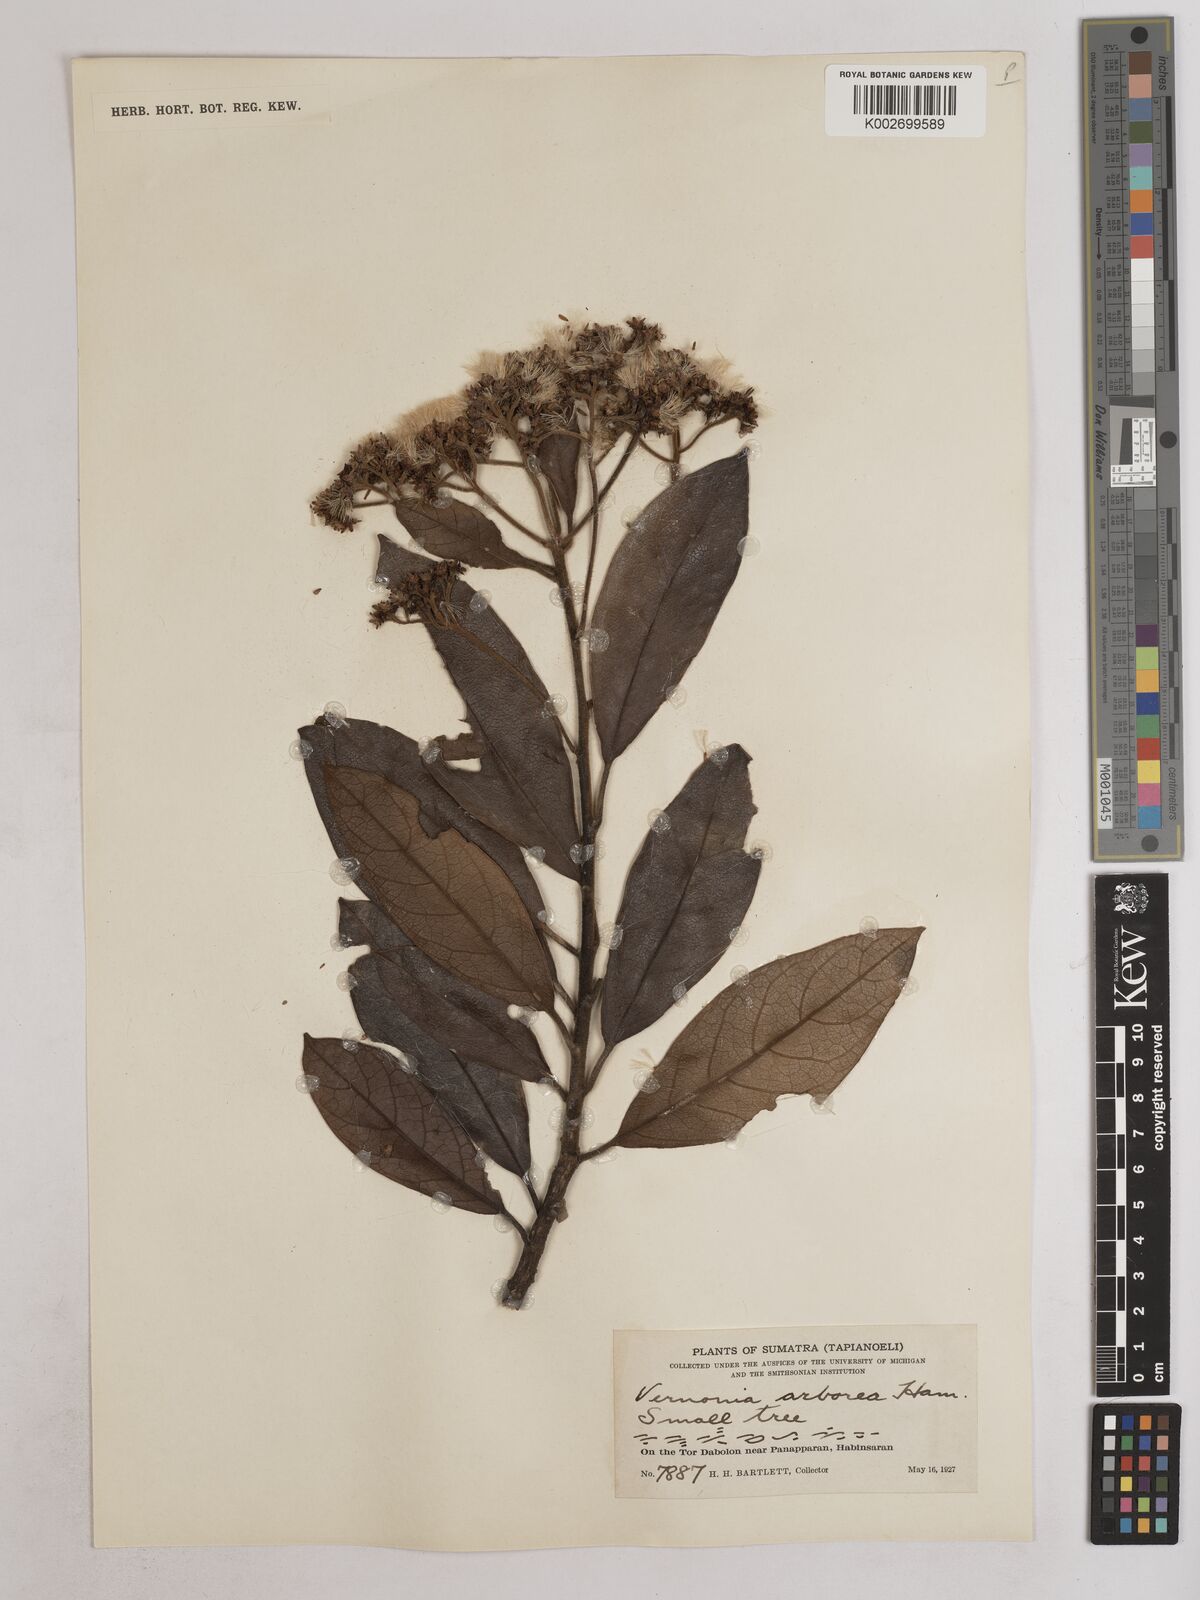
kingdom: Plantae
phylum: Tracheophyta
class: Magnoliopsida
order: Asterales
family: Asteraceae
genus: Strobocalyx
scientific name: Strobocalyx arborea
